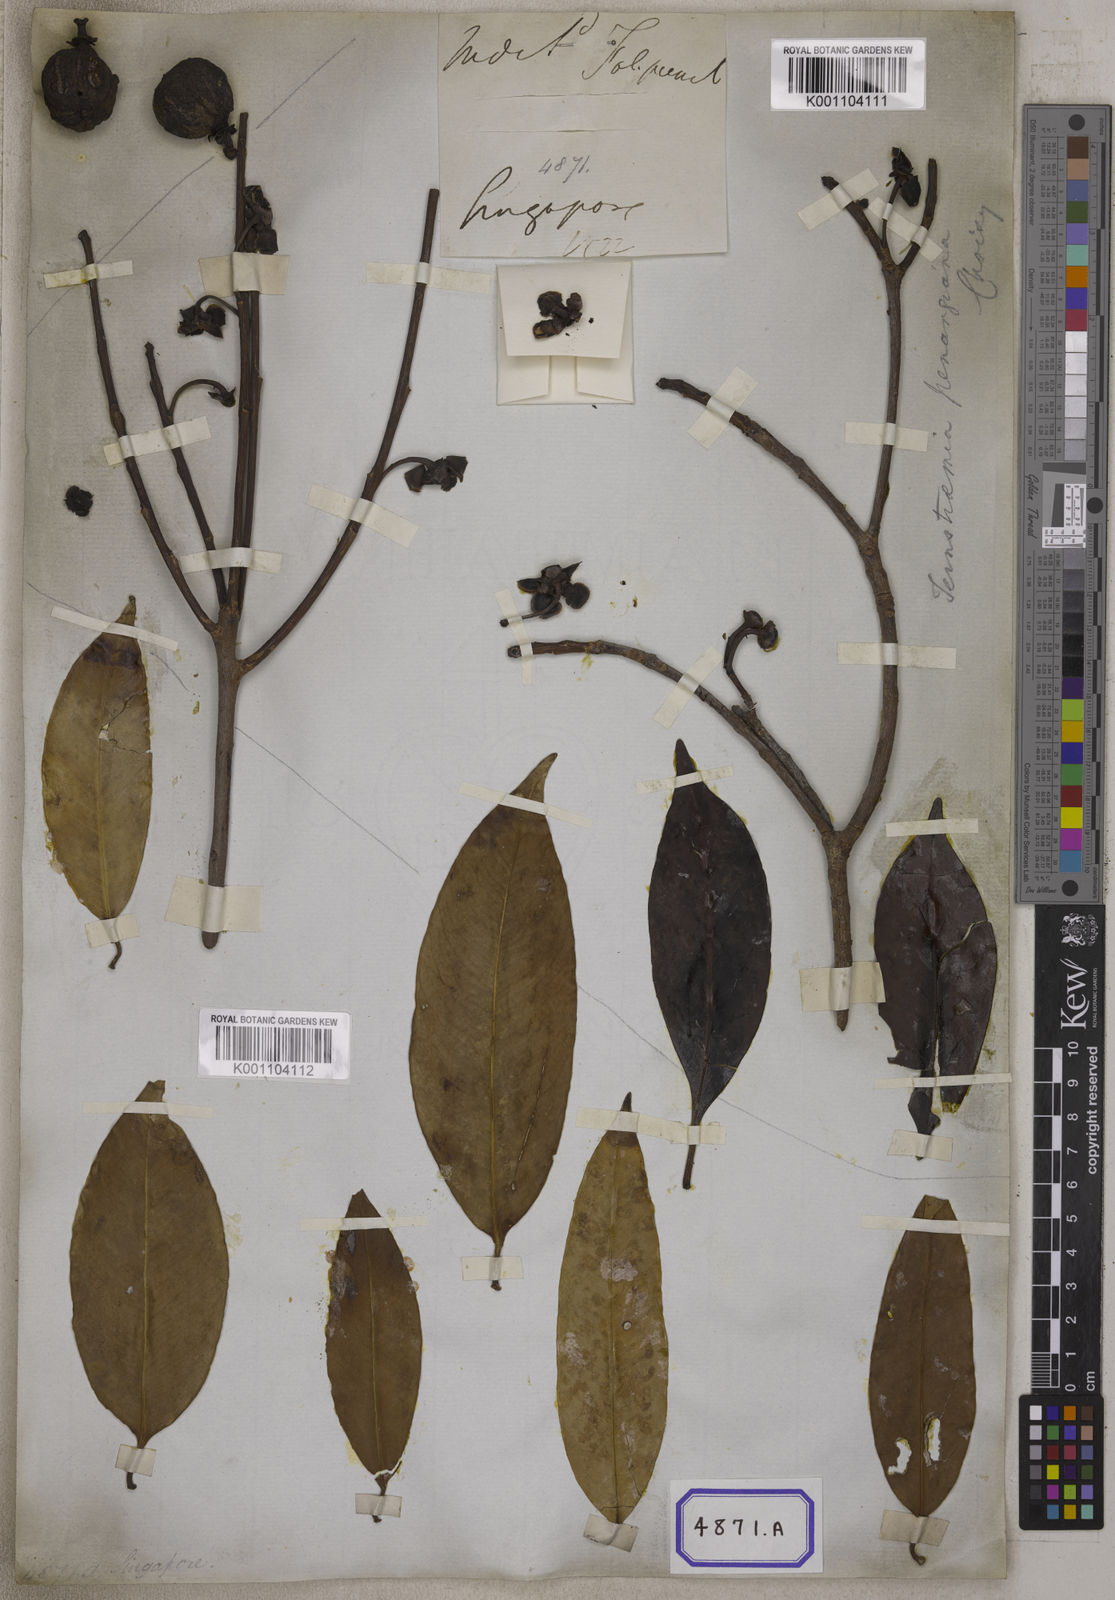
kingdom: Plantae
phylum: Tracheophyta
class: Magnoliopsida
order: Malpighiales
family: Clusiaceae
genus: Garcinia
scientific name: Garcinia
